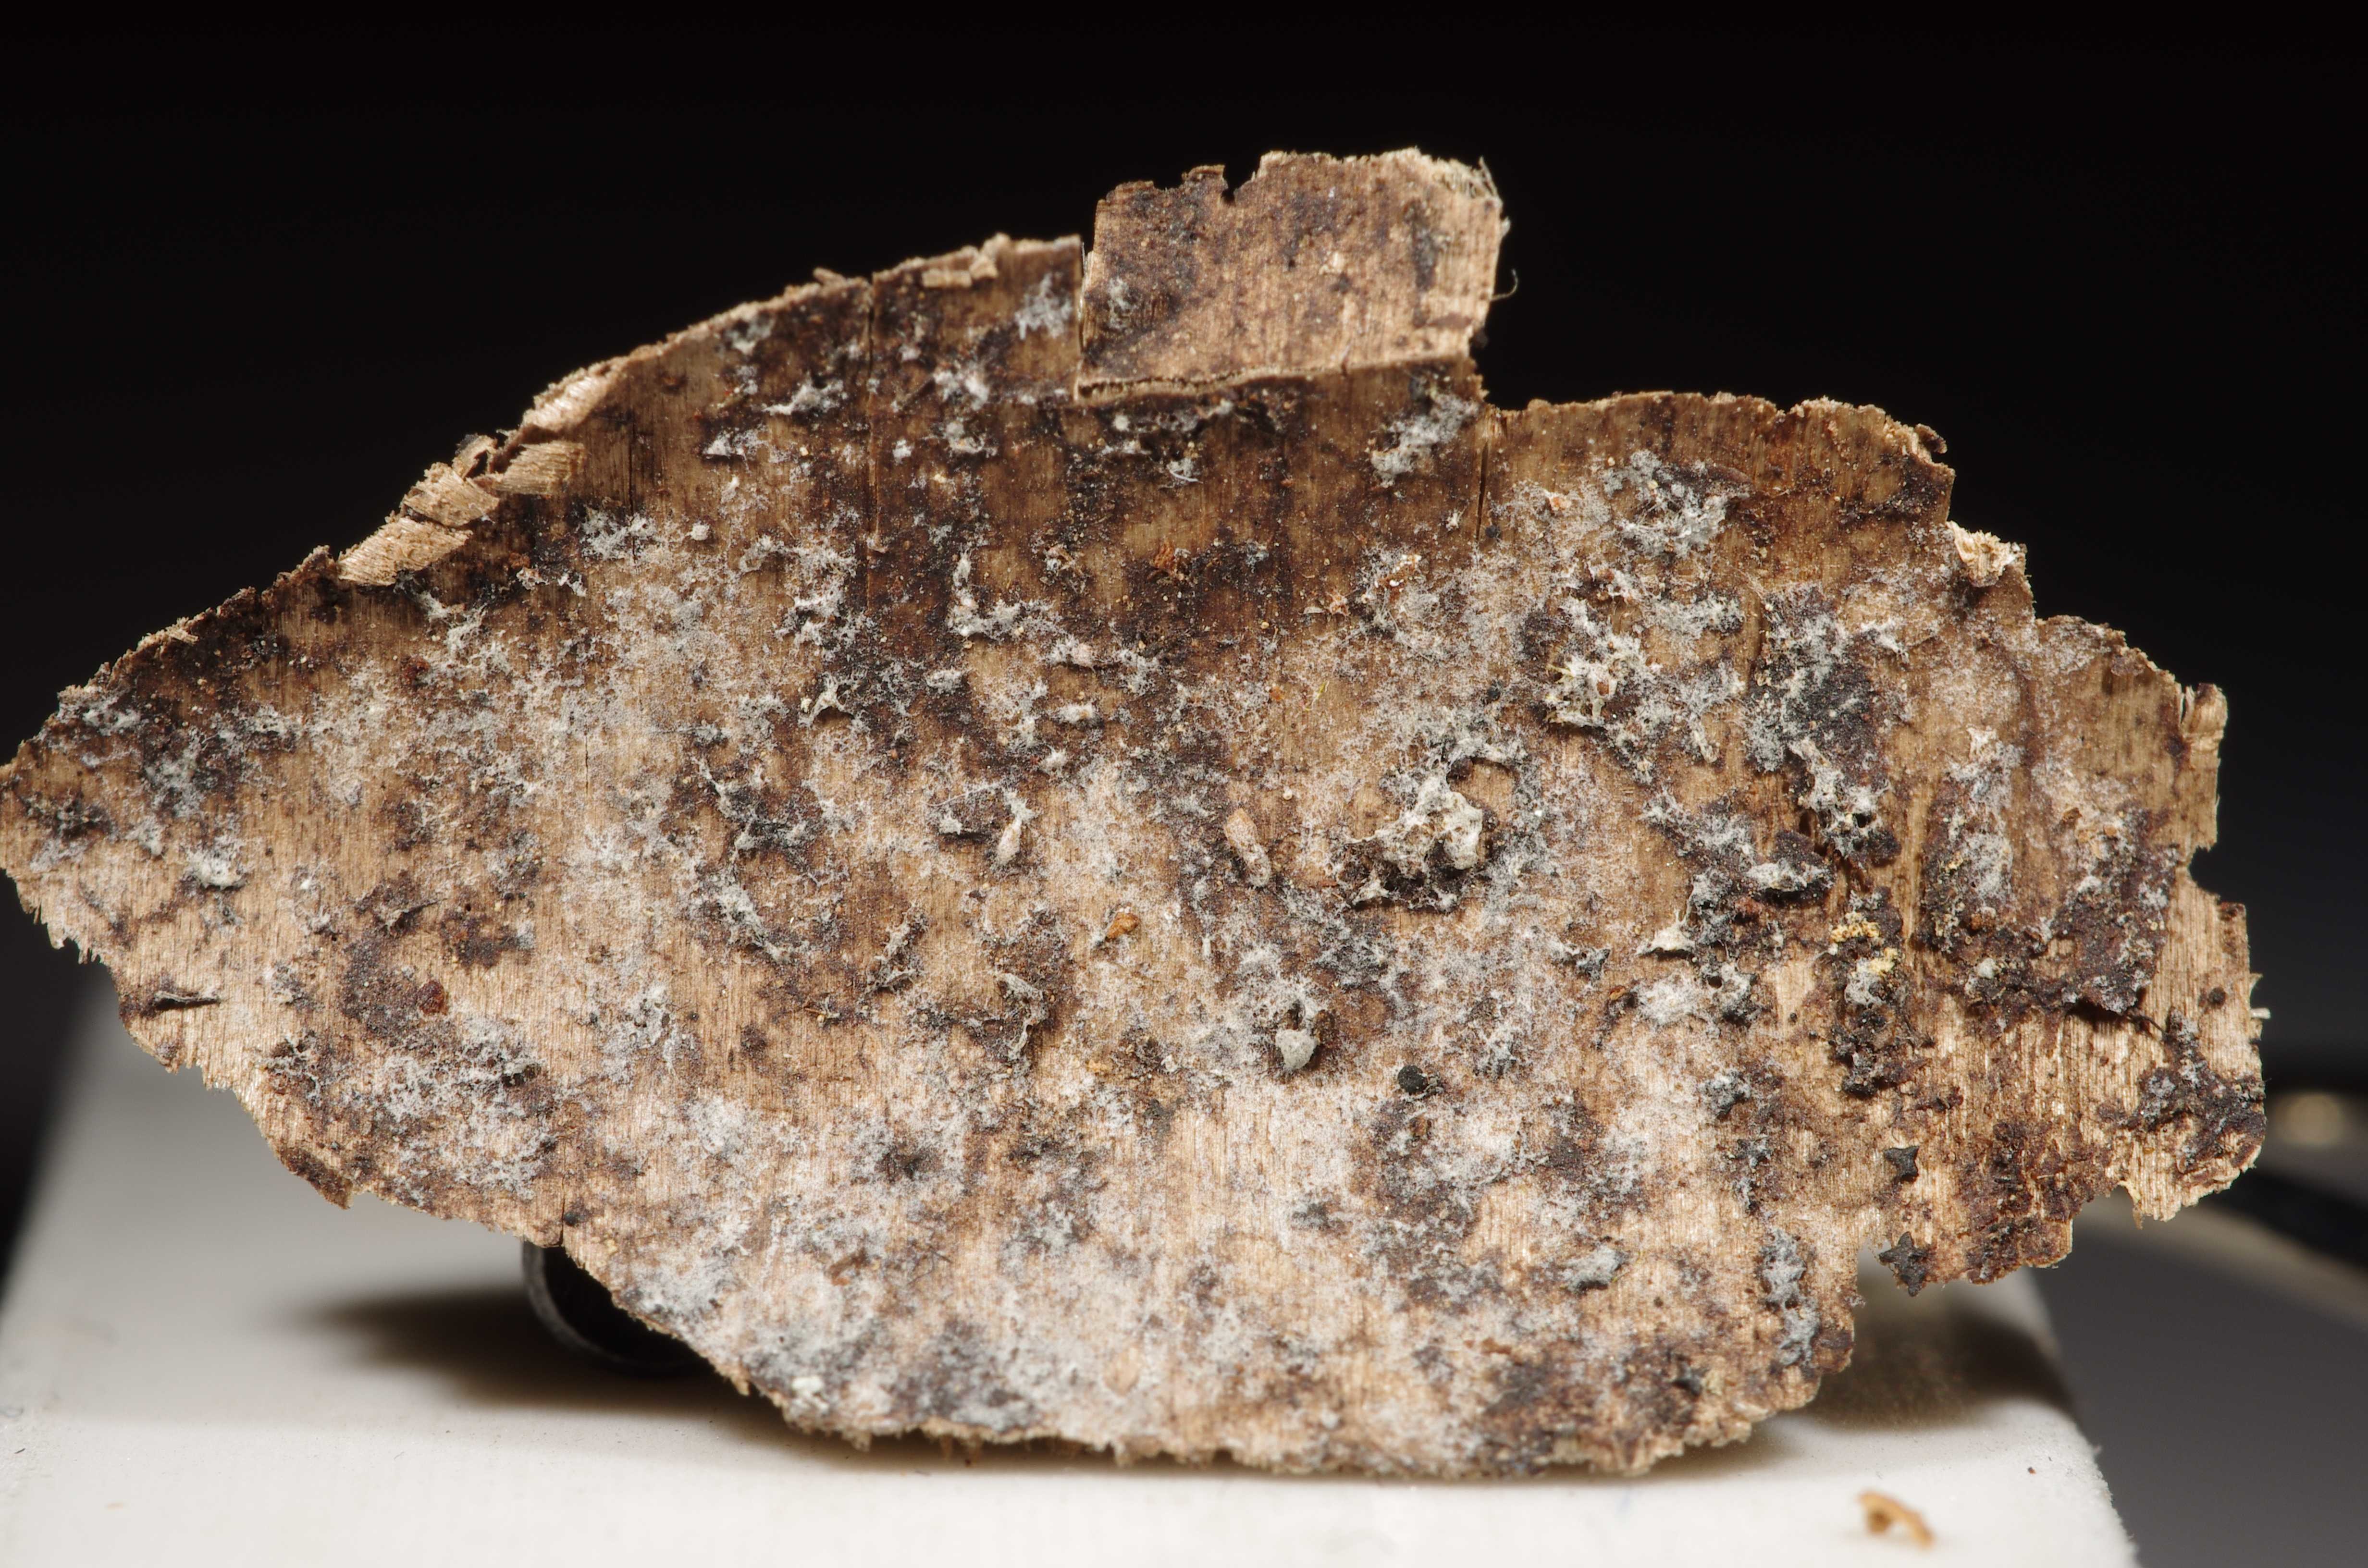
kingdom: Fungi
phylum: Basidiomycota
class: Agaricomycetes
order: Cantharellales
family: Tulasnellaceae
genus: Tulasnella
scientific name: Tulasnella pallida
